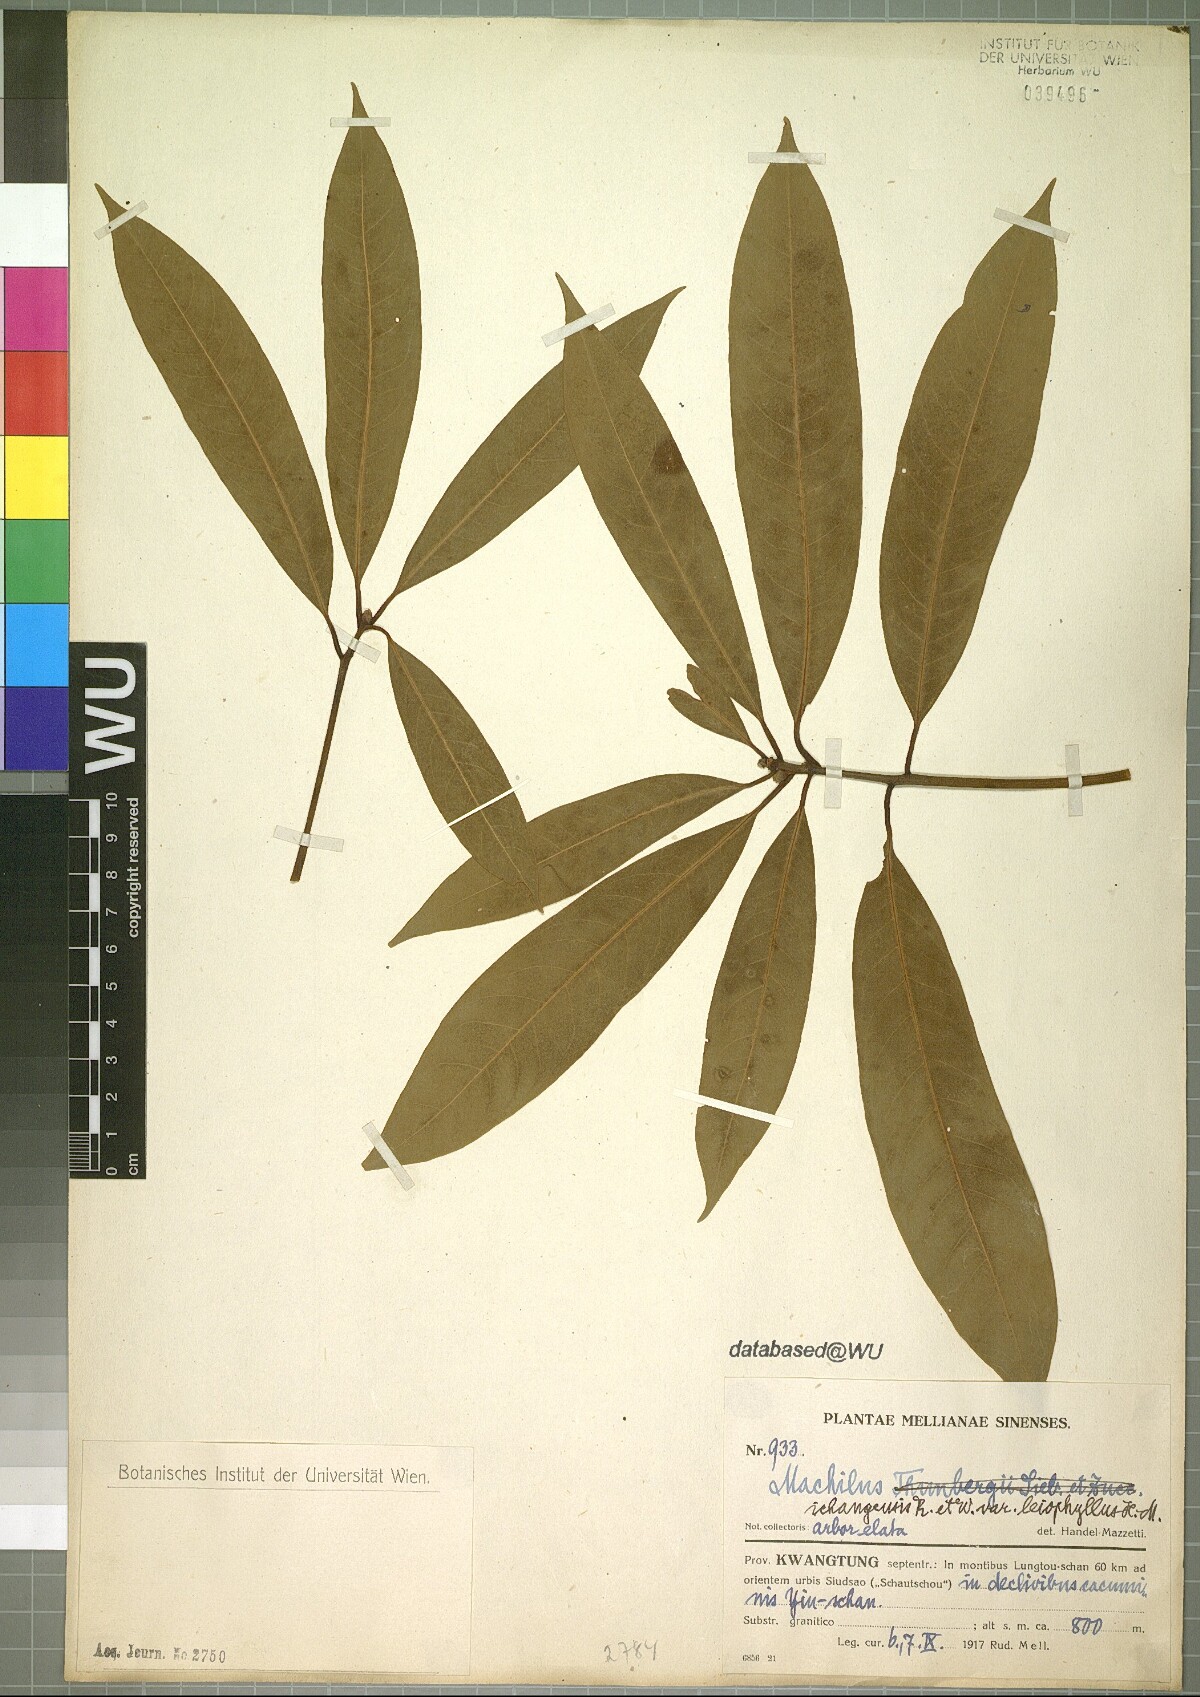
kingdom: Plantae
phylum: Tracheophyta
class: Magnoliopsida
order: Laurales
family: Lauraceae
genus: Machilus
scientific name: Machilus ichangensis
